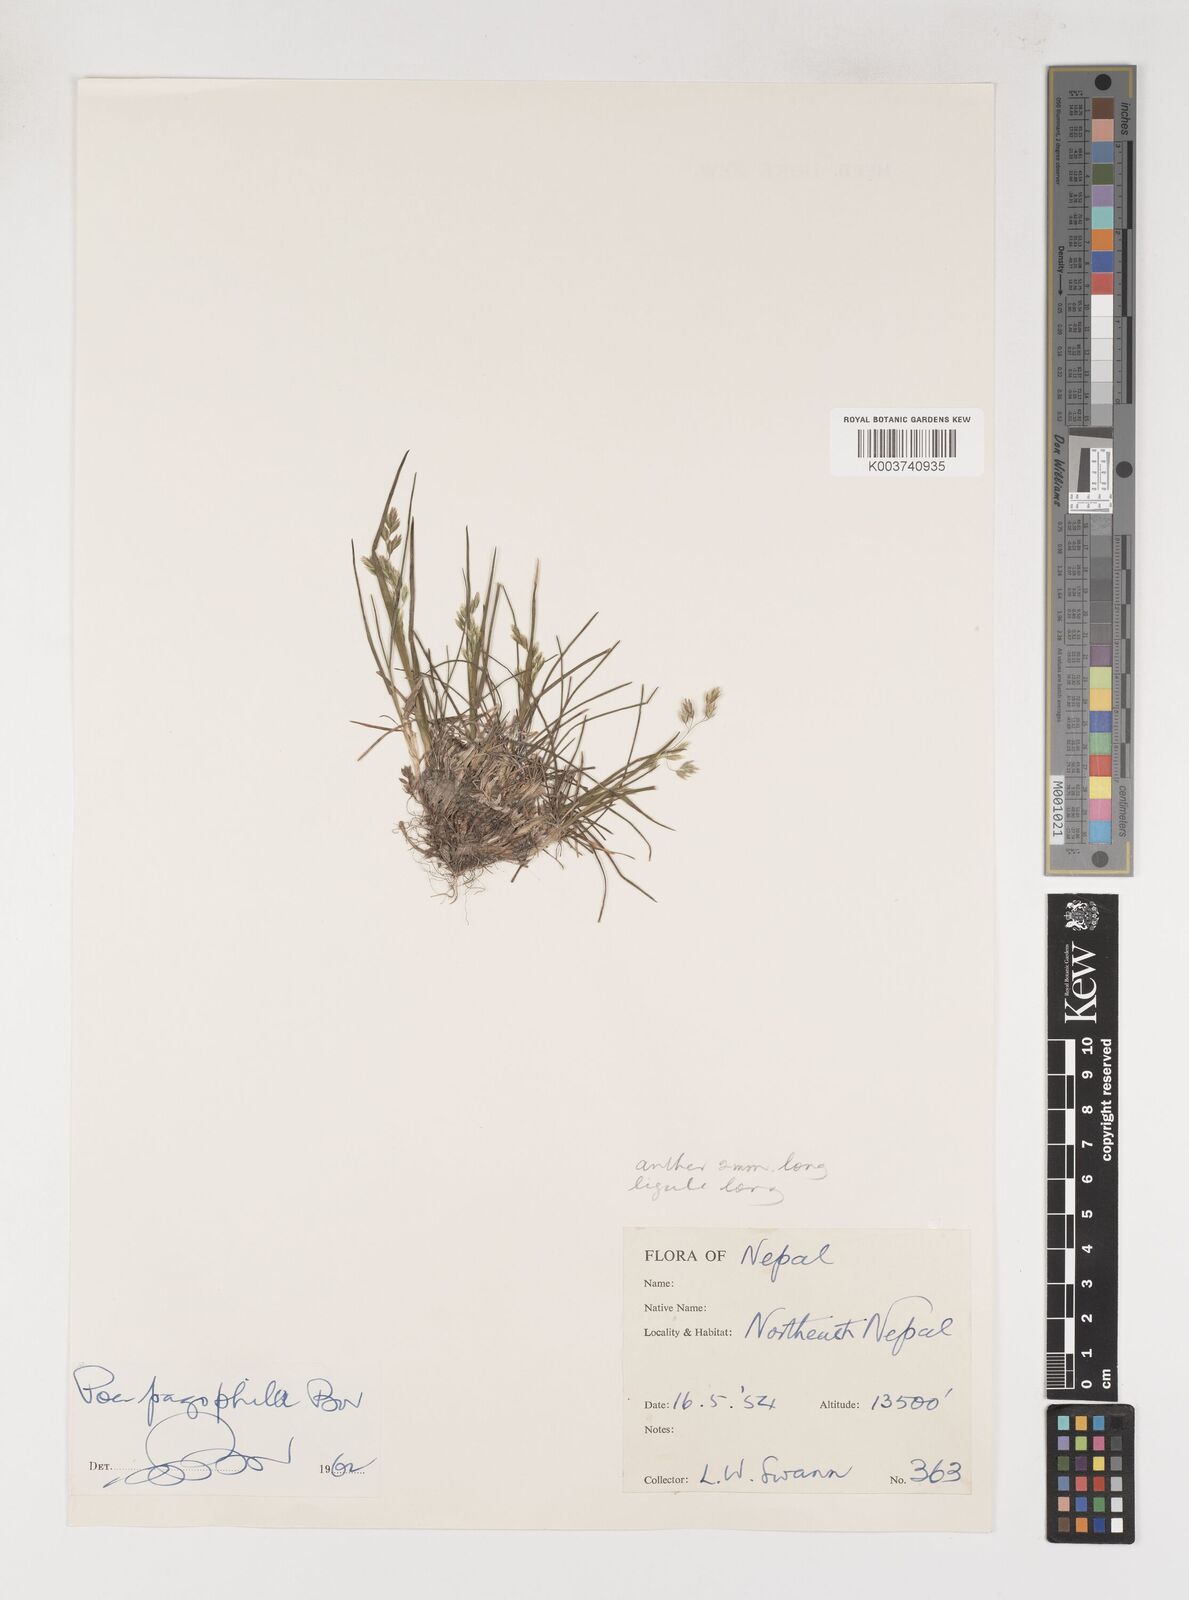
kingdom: Plantae
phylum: Tracheophyta
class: Liliopsida
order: Poales
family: Poaceae
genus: Poa
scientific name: Poa pagophila
